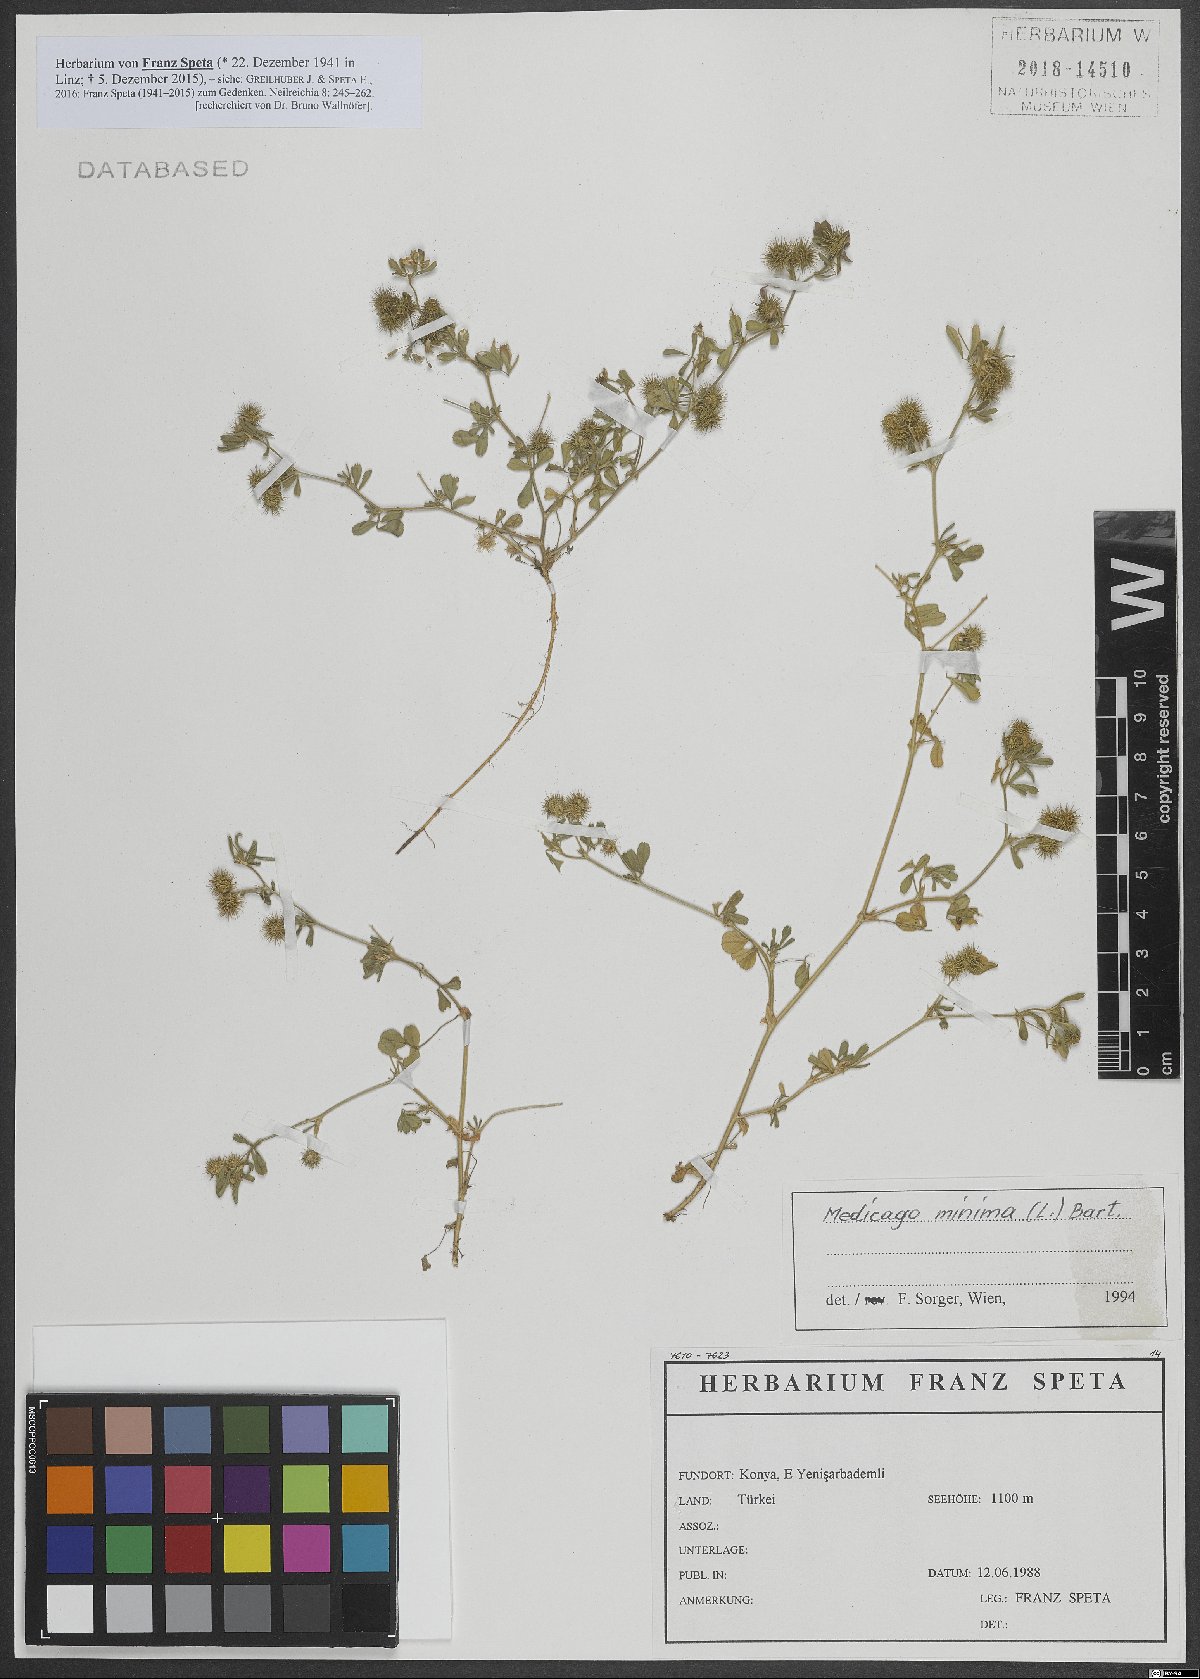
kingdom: Plantae
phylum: Tracheophyta
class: Magnoliopsida
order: Fabales
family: Fabaceae
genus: Medicago
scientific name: Medicago minima
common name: Little bur-clover
